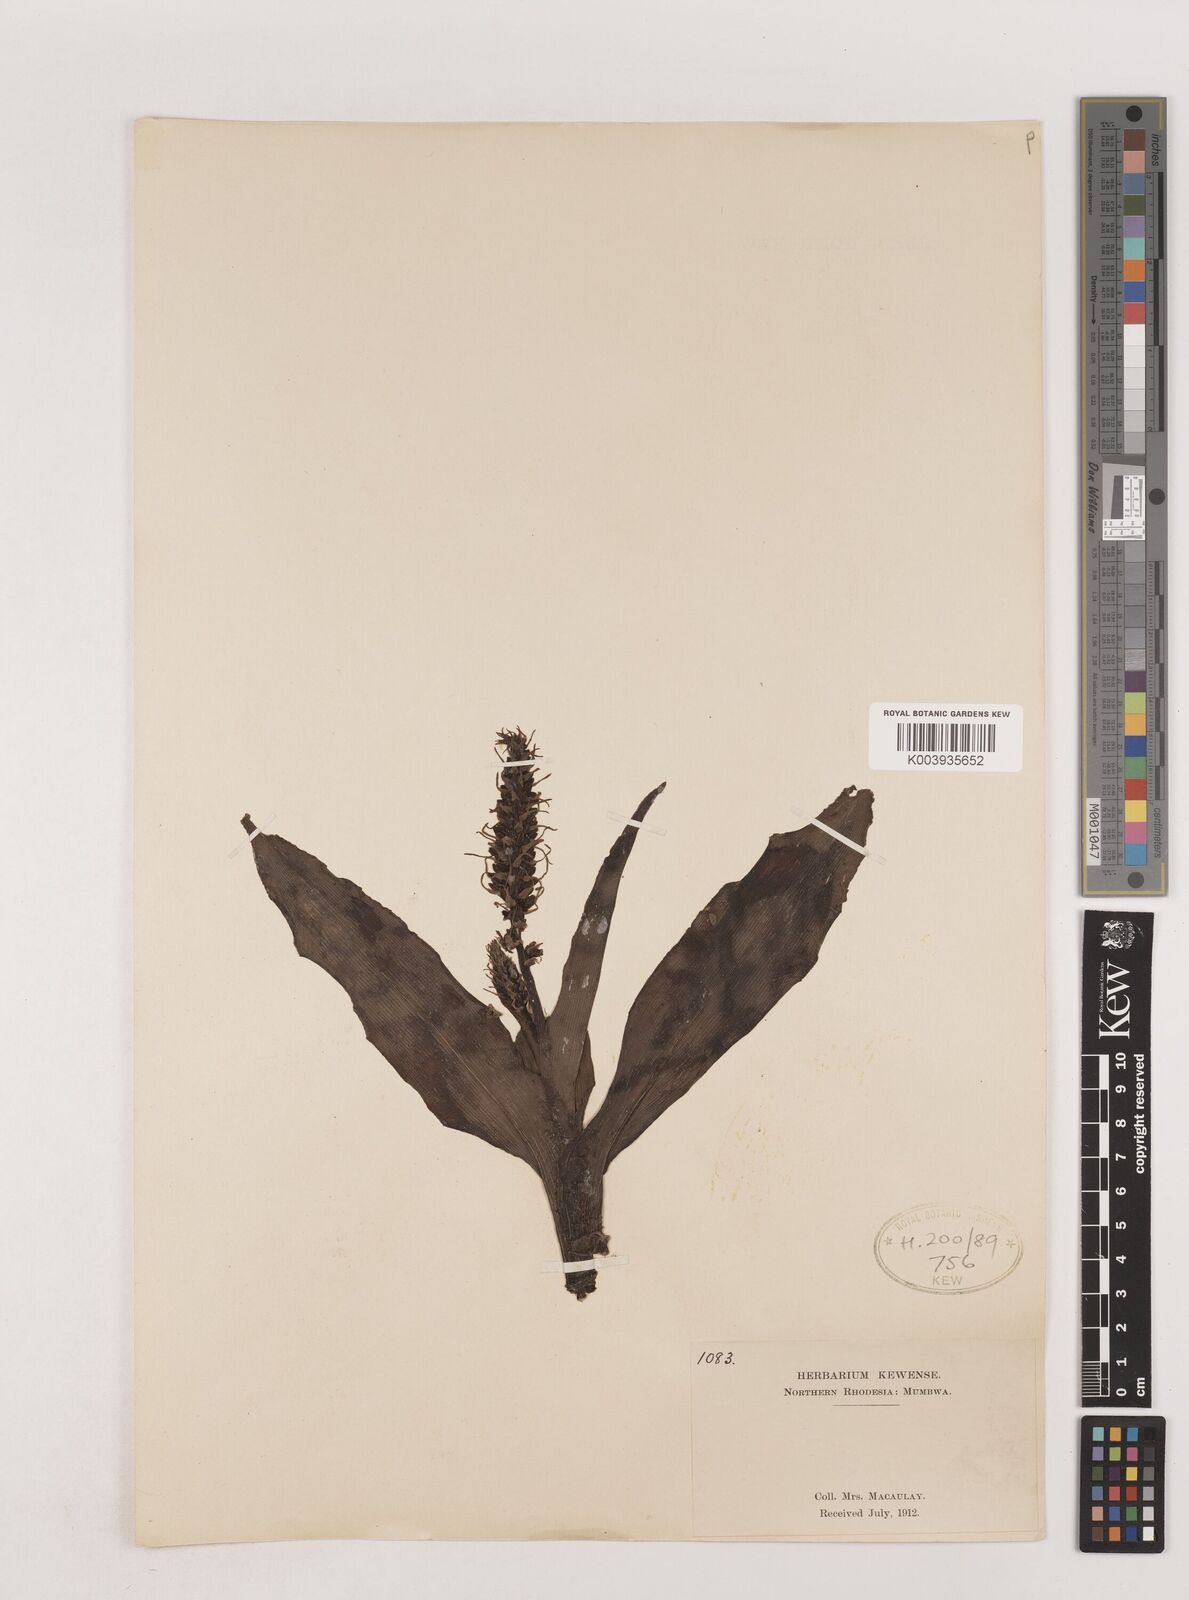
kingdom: Plantae
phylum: Tracheophyta
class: Liliopsida
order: Asparagales
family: Asparagaceae
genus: Chlorophytum
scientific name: Chlorophytum
